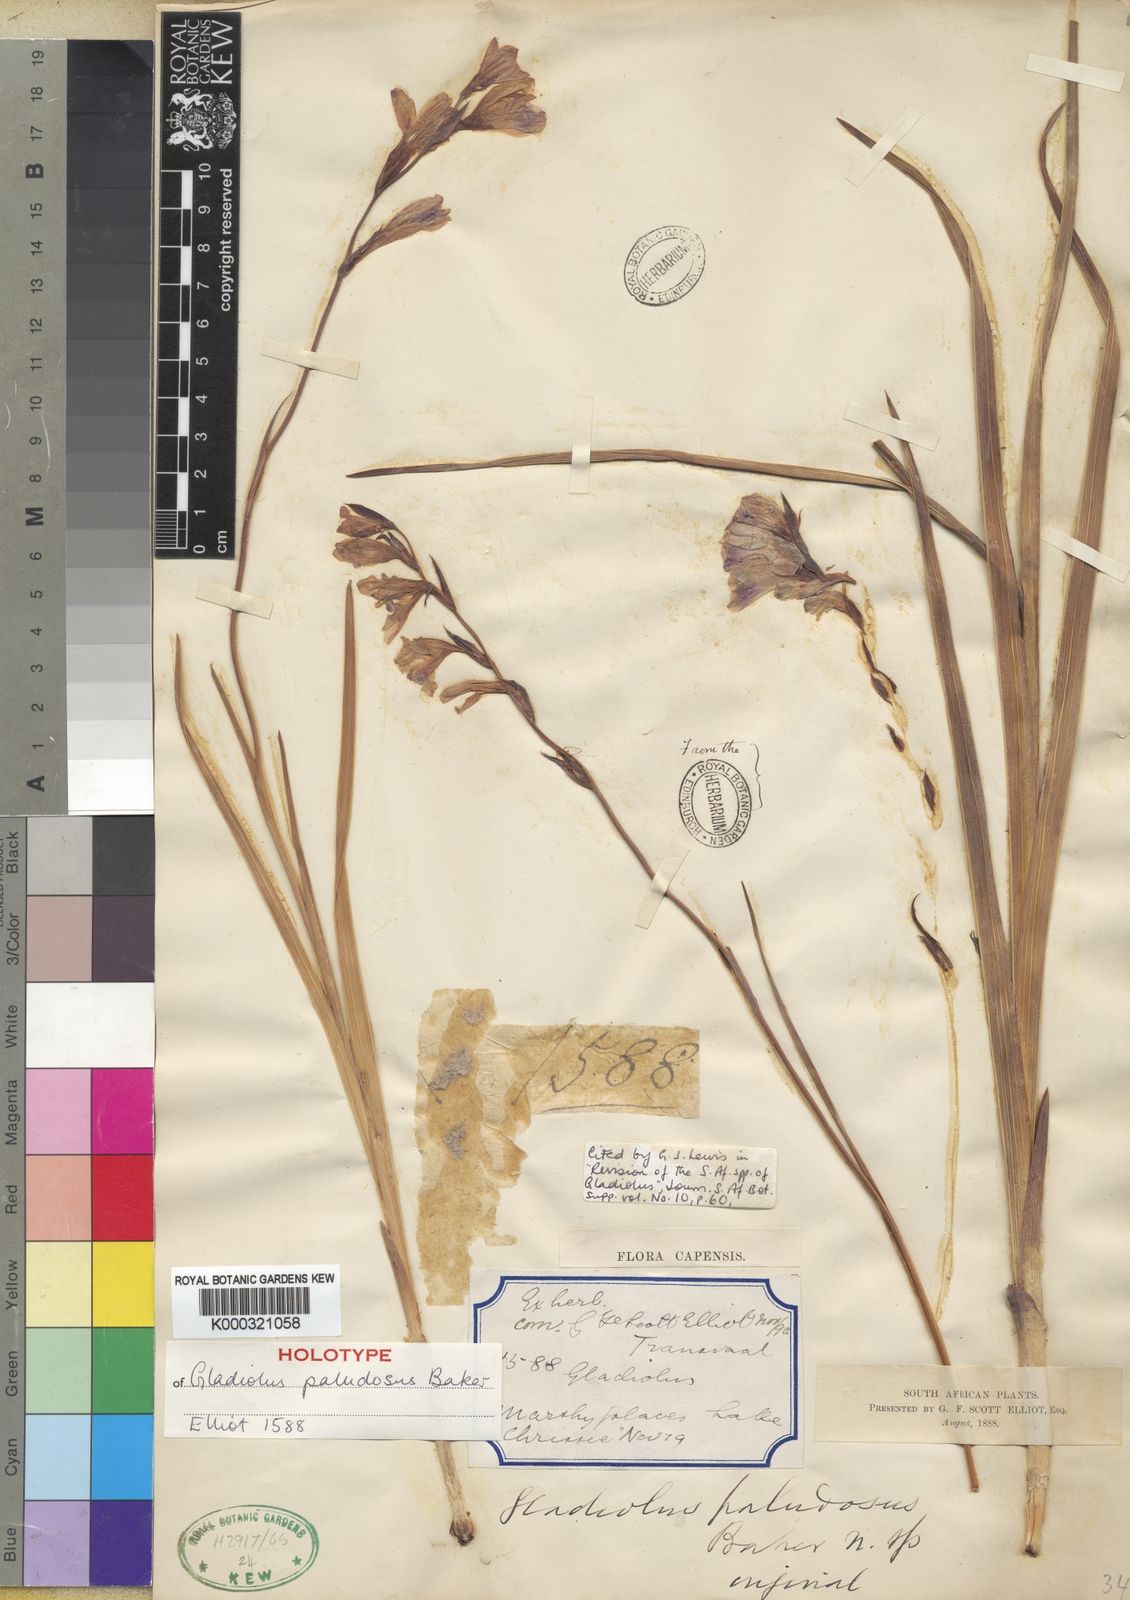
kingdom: Plantae
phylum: Tracheophyta
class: Liliopsida
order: Asparagales
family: Iridaceae
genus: Gladiolus
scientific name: Gladiolus paludosus
